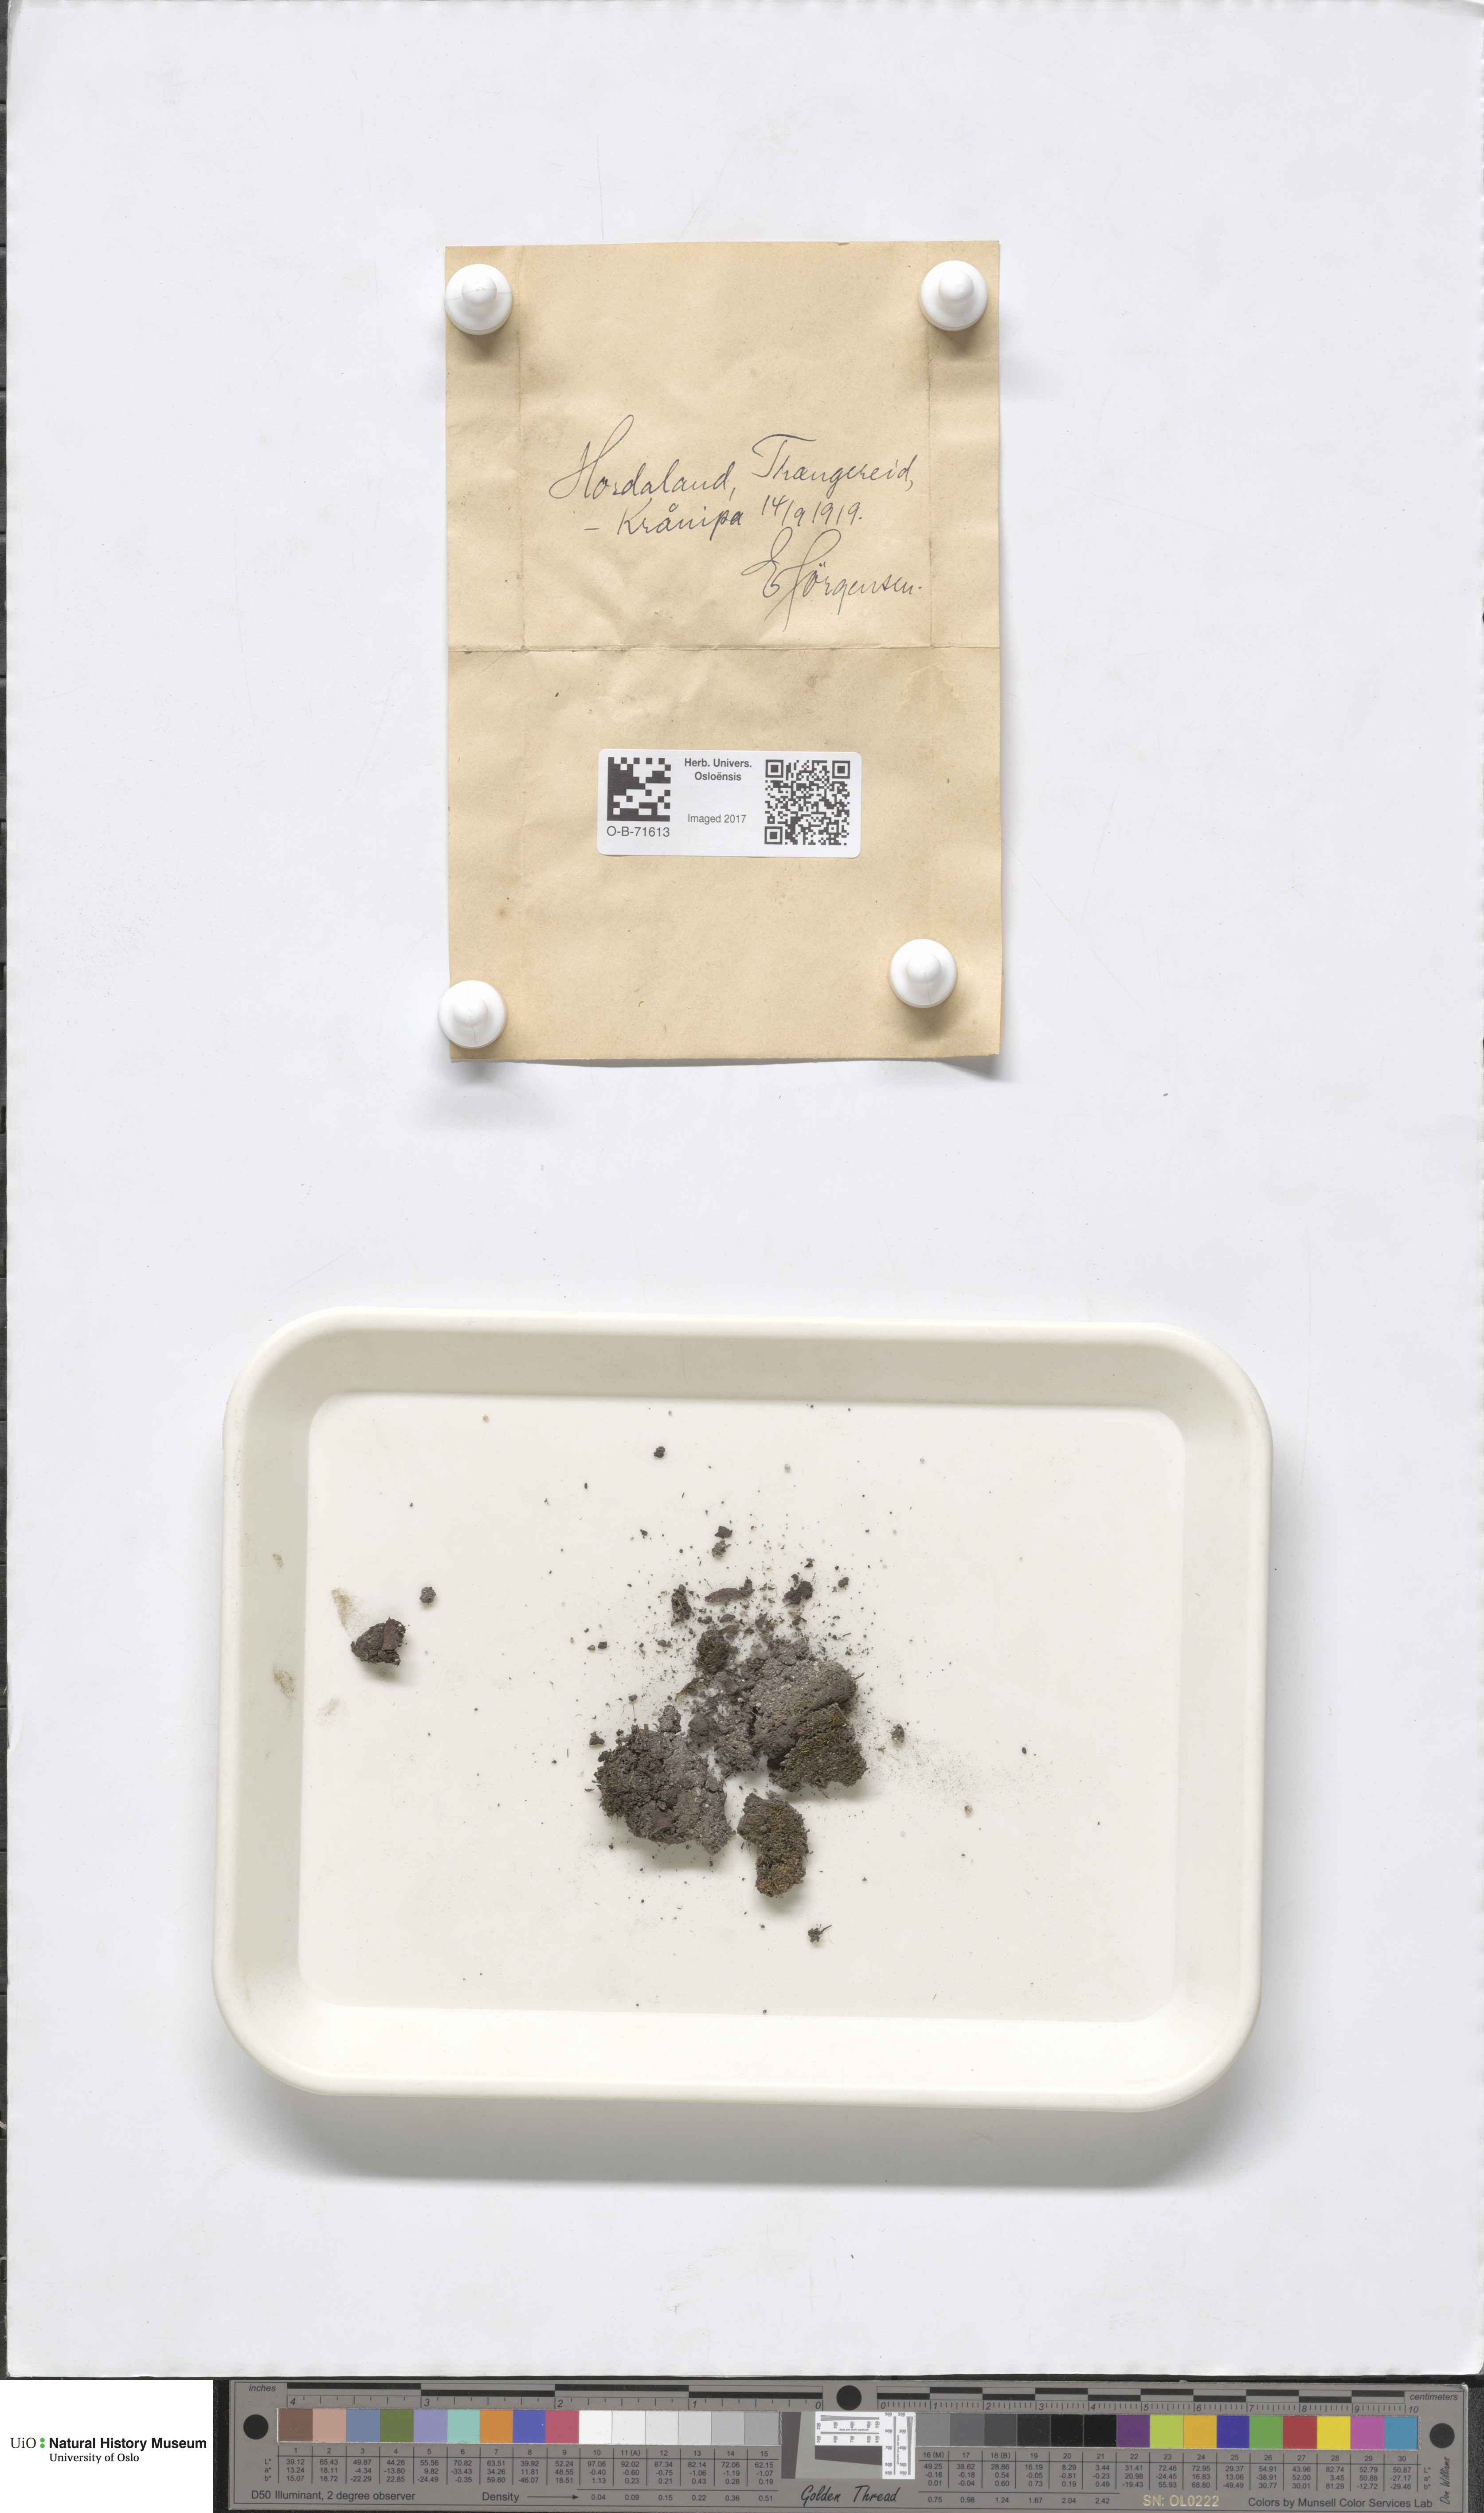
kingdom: Plantae
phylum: Marchantiophyta
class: Jungermanniopsida
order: Jungermanniales
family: Cephaloziaceae
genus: Cephalozia
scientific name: Cephalozia bicuspidata
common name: Two-horned pincerwort
